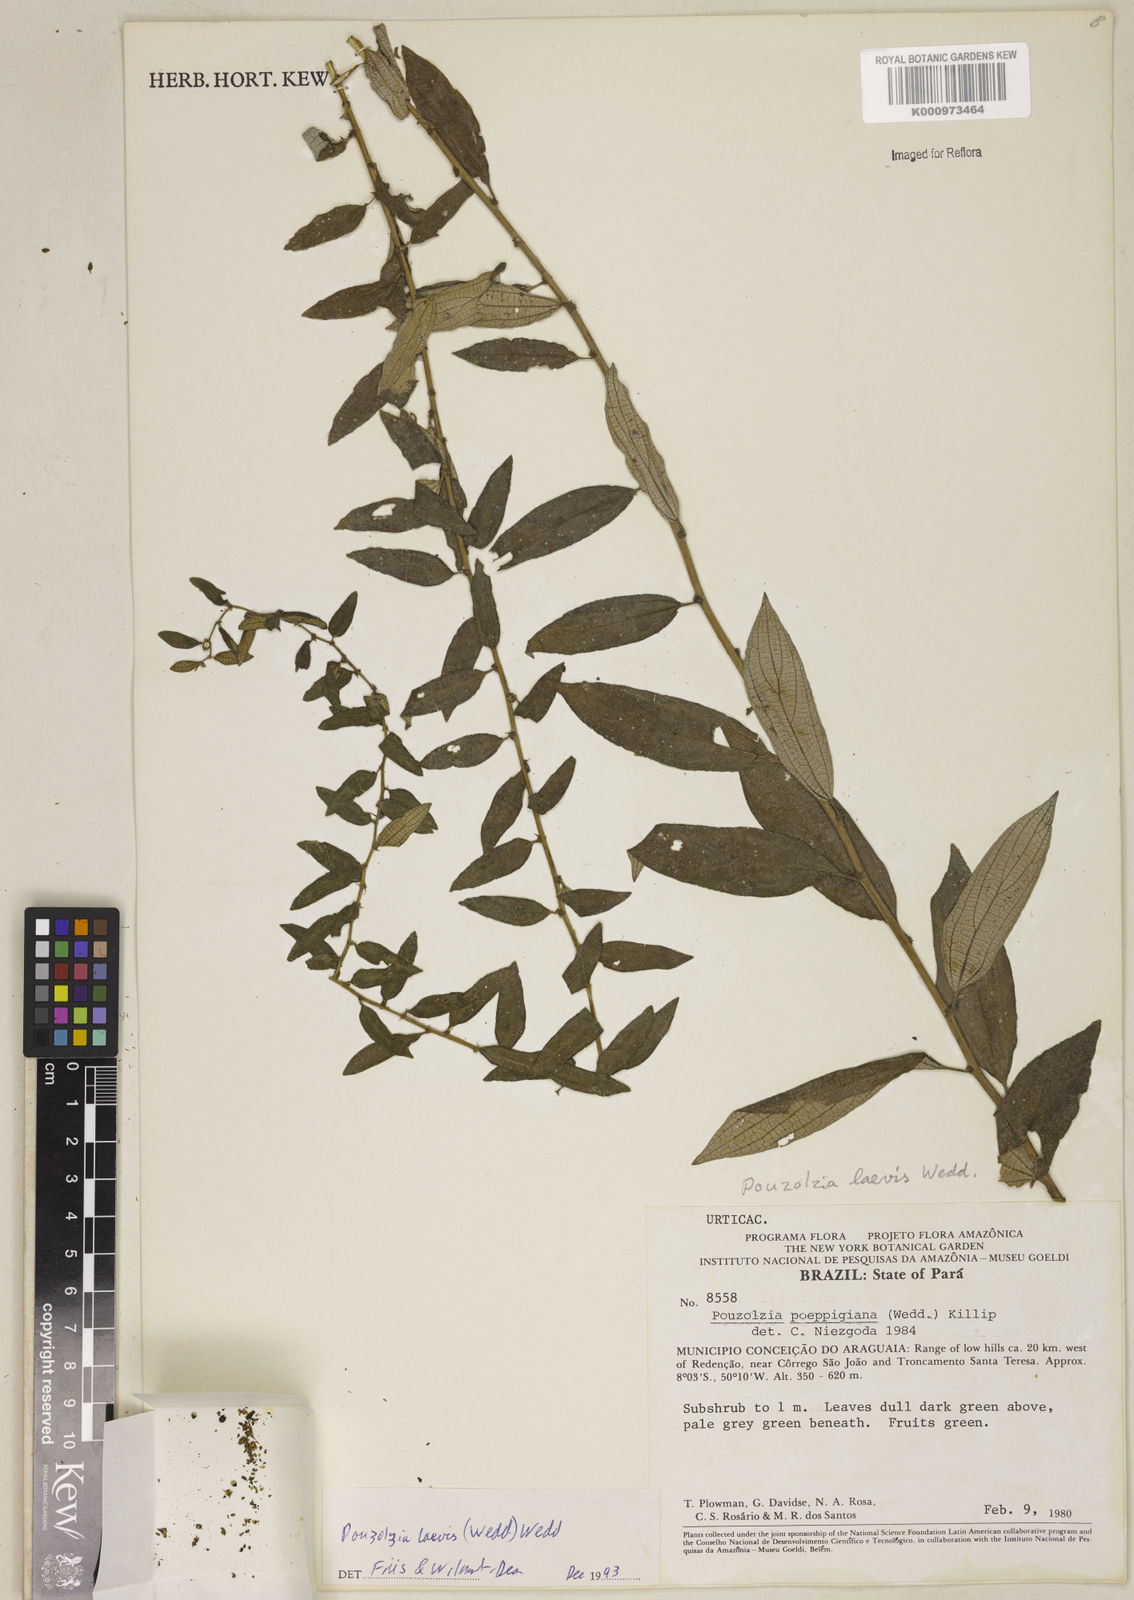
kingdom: Plantae
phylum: Tracheophyta
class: Magnoliopsida
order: Rosales
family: Urticaceae
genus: Pouzolzia
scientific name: Pouzolzia laevis
